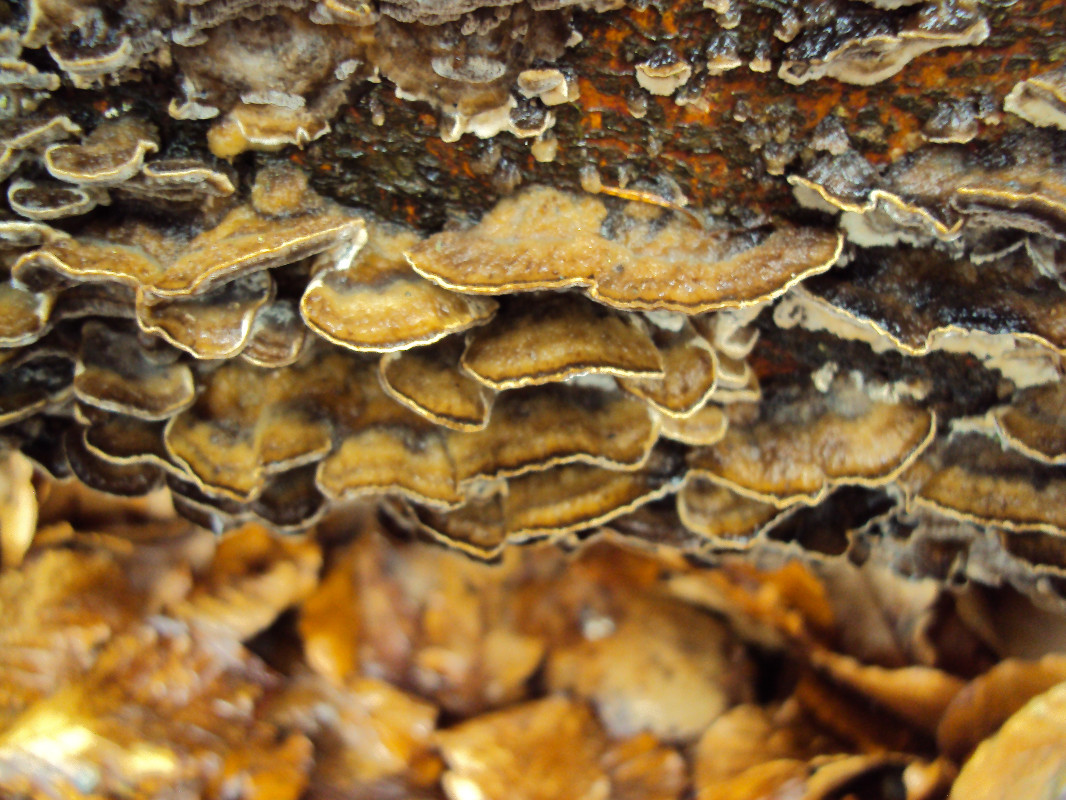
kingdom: Fungi
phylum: Basidiomycota
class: Agaricomycetes
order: Polyporales
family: Phanerochaetaceae
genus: Bjerkandera
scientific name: Bjerkandera adusta
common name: sveden sodporesvamp
